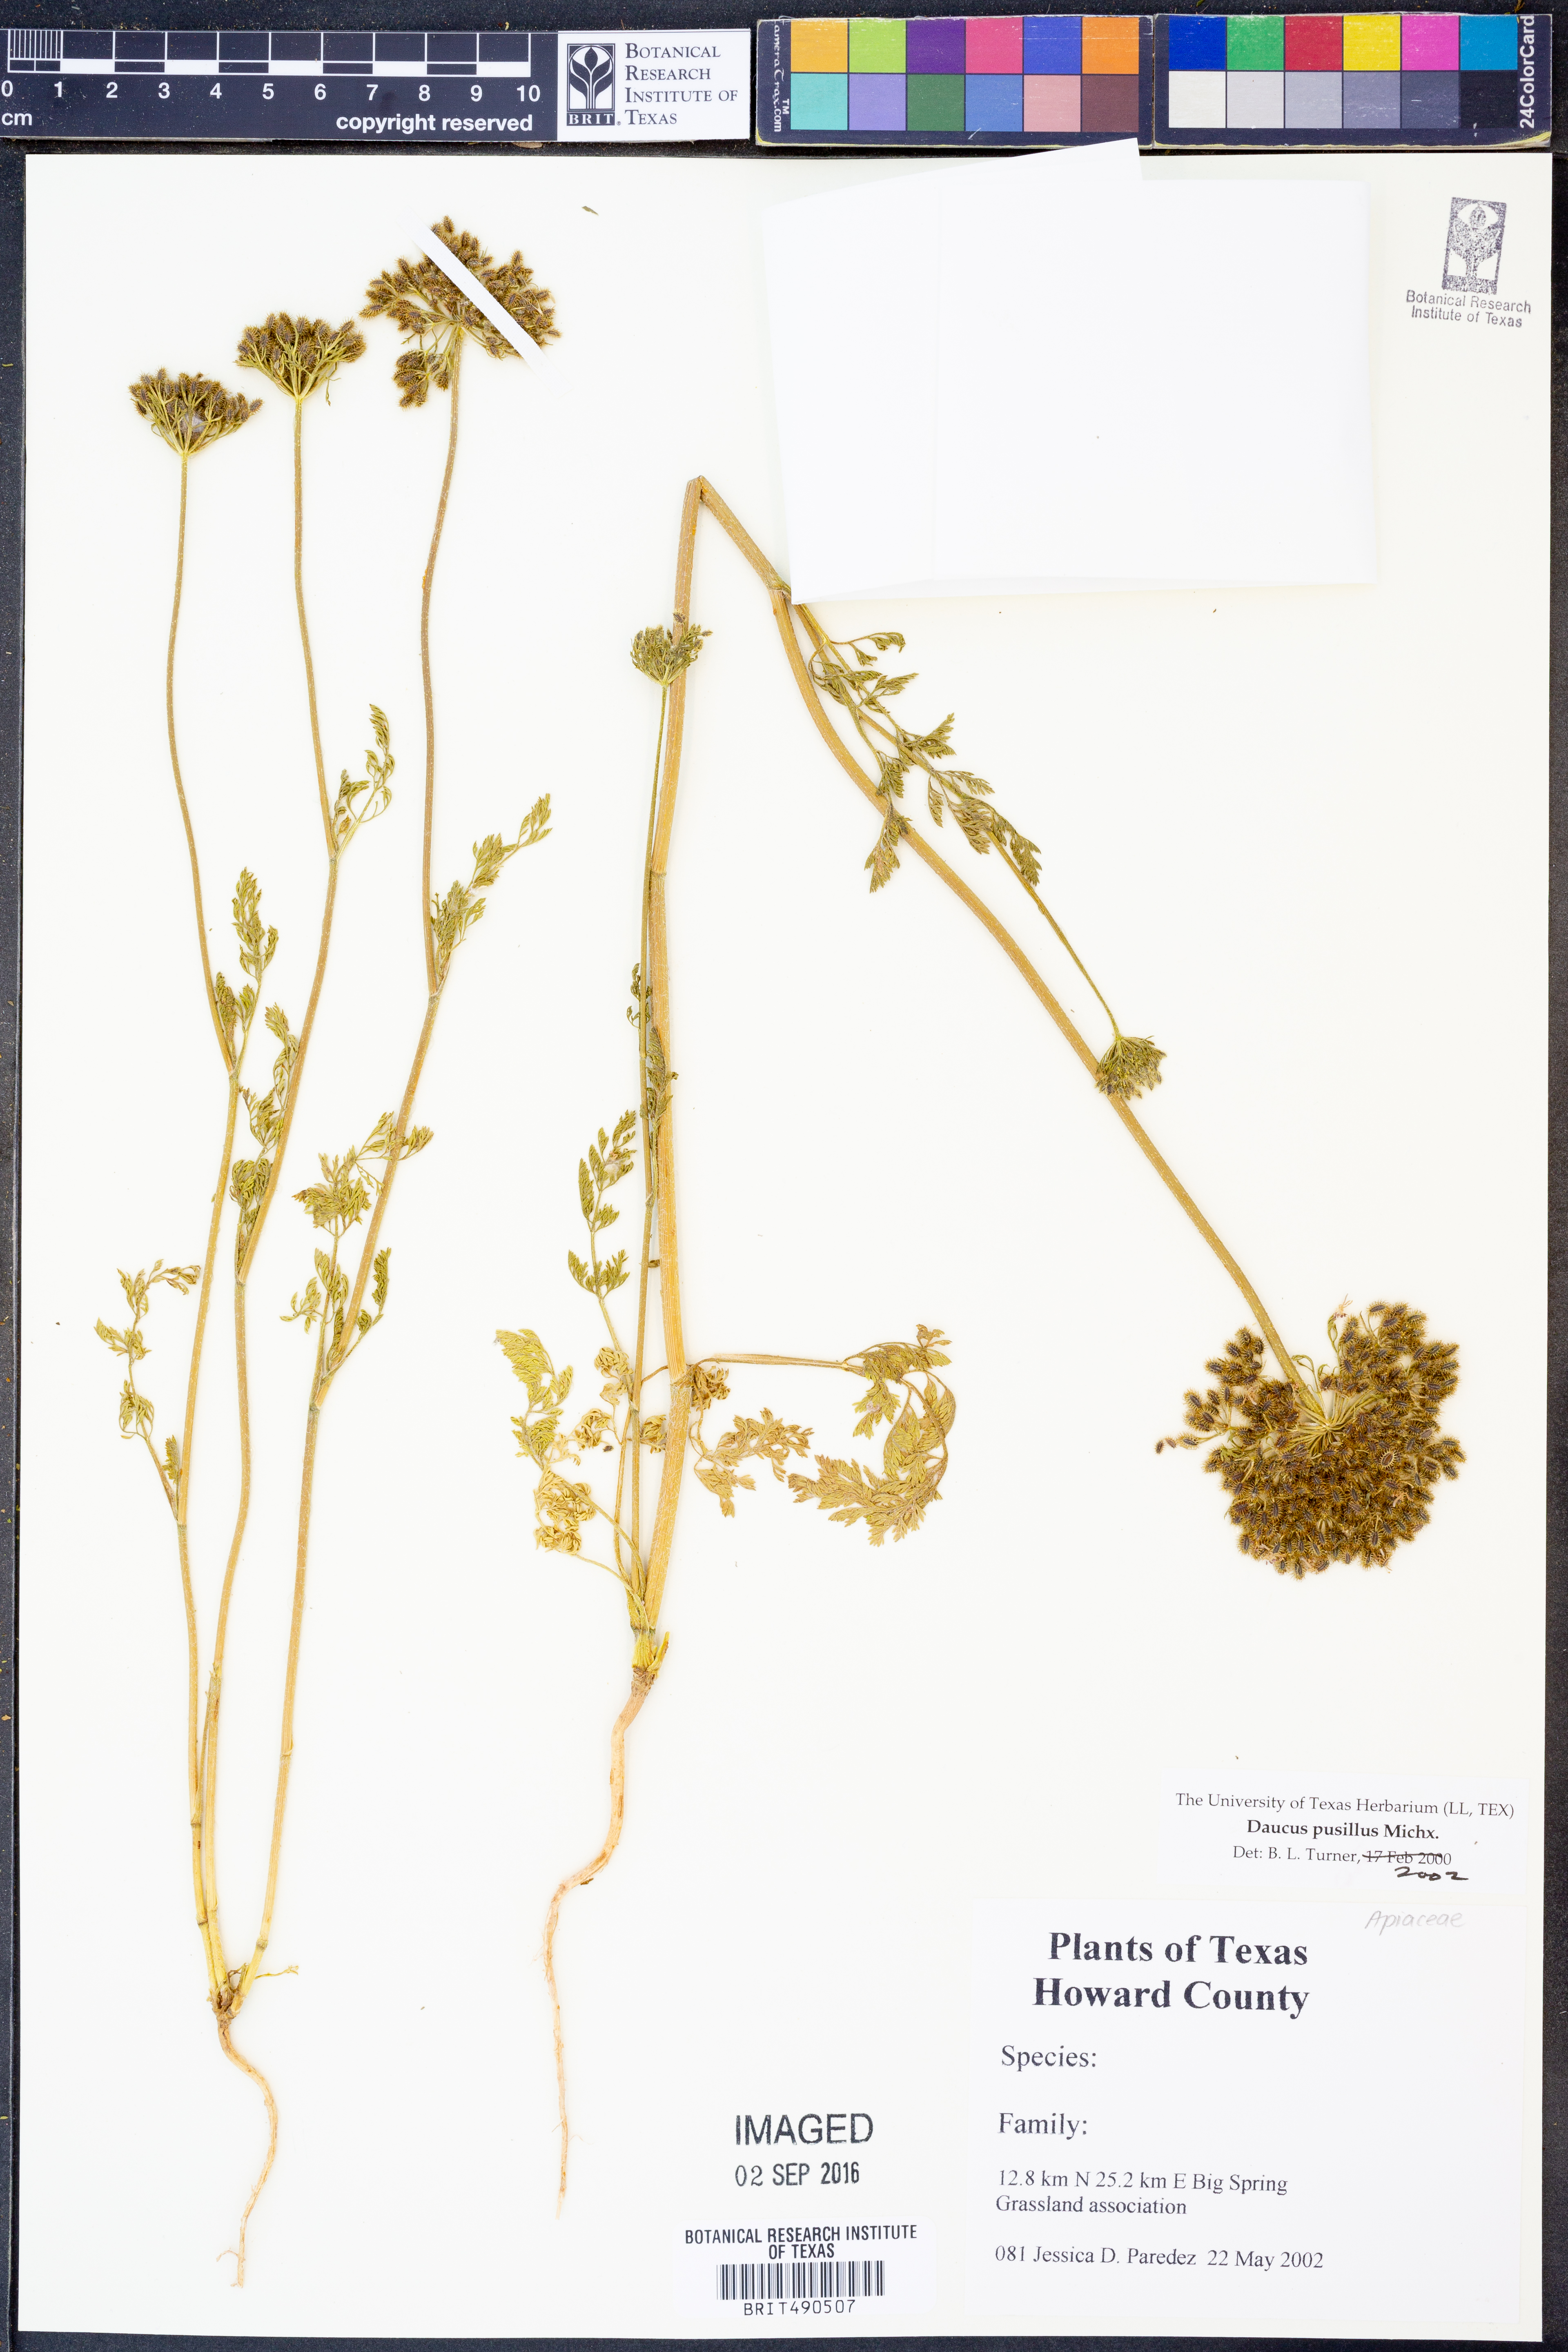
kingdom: Plantae
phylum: Tracheophyta
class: Magnoliopsida
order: Apiales
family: Apiaceae
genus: Daucus
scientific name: Daucus pusillus
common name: Southwest wild carrot
